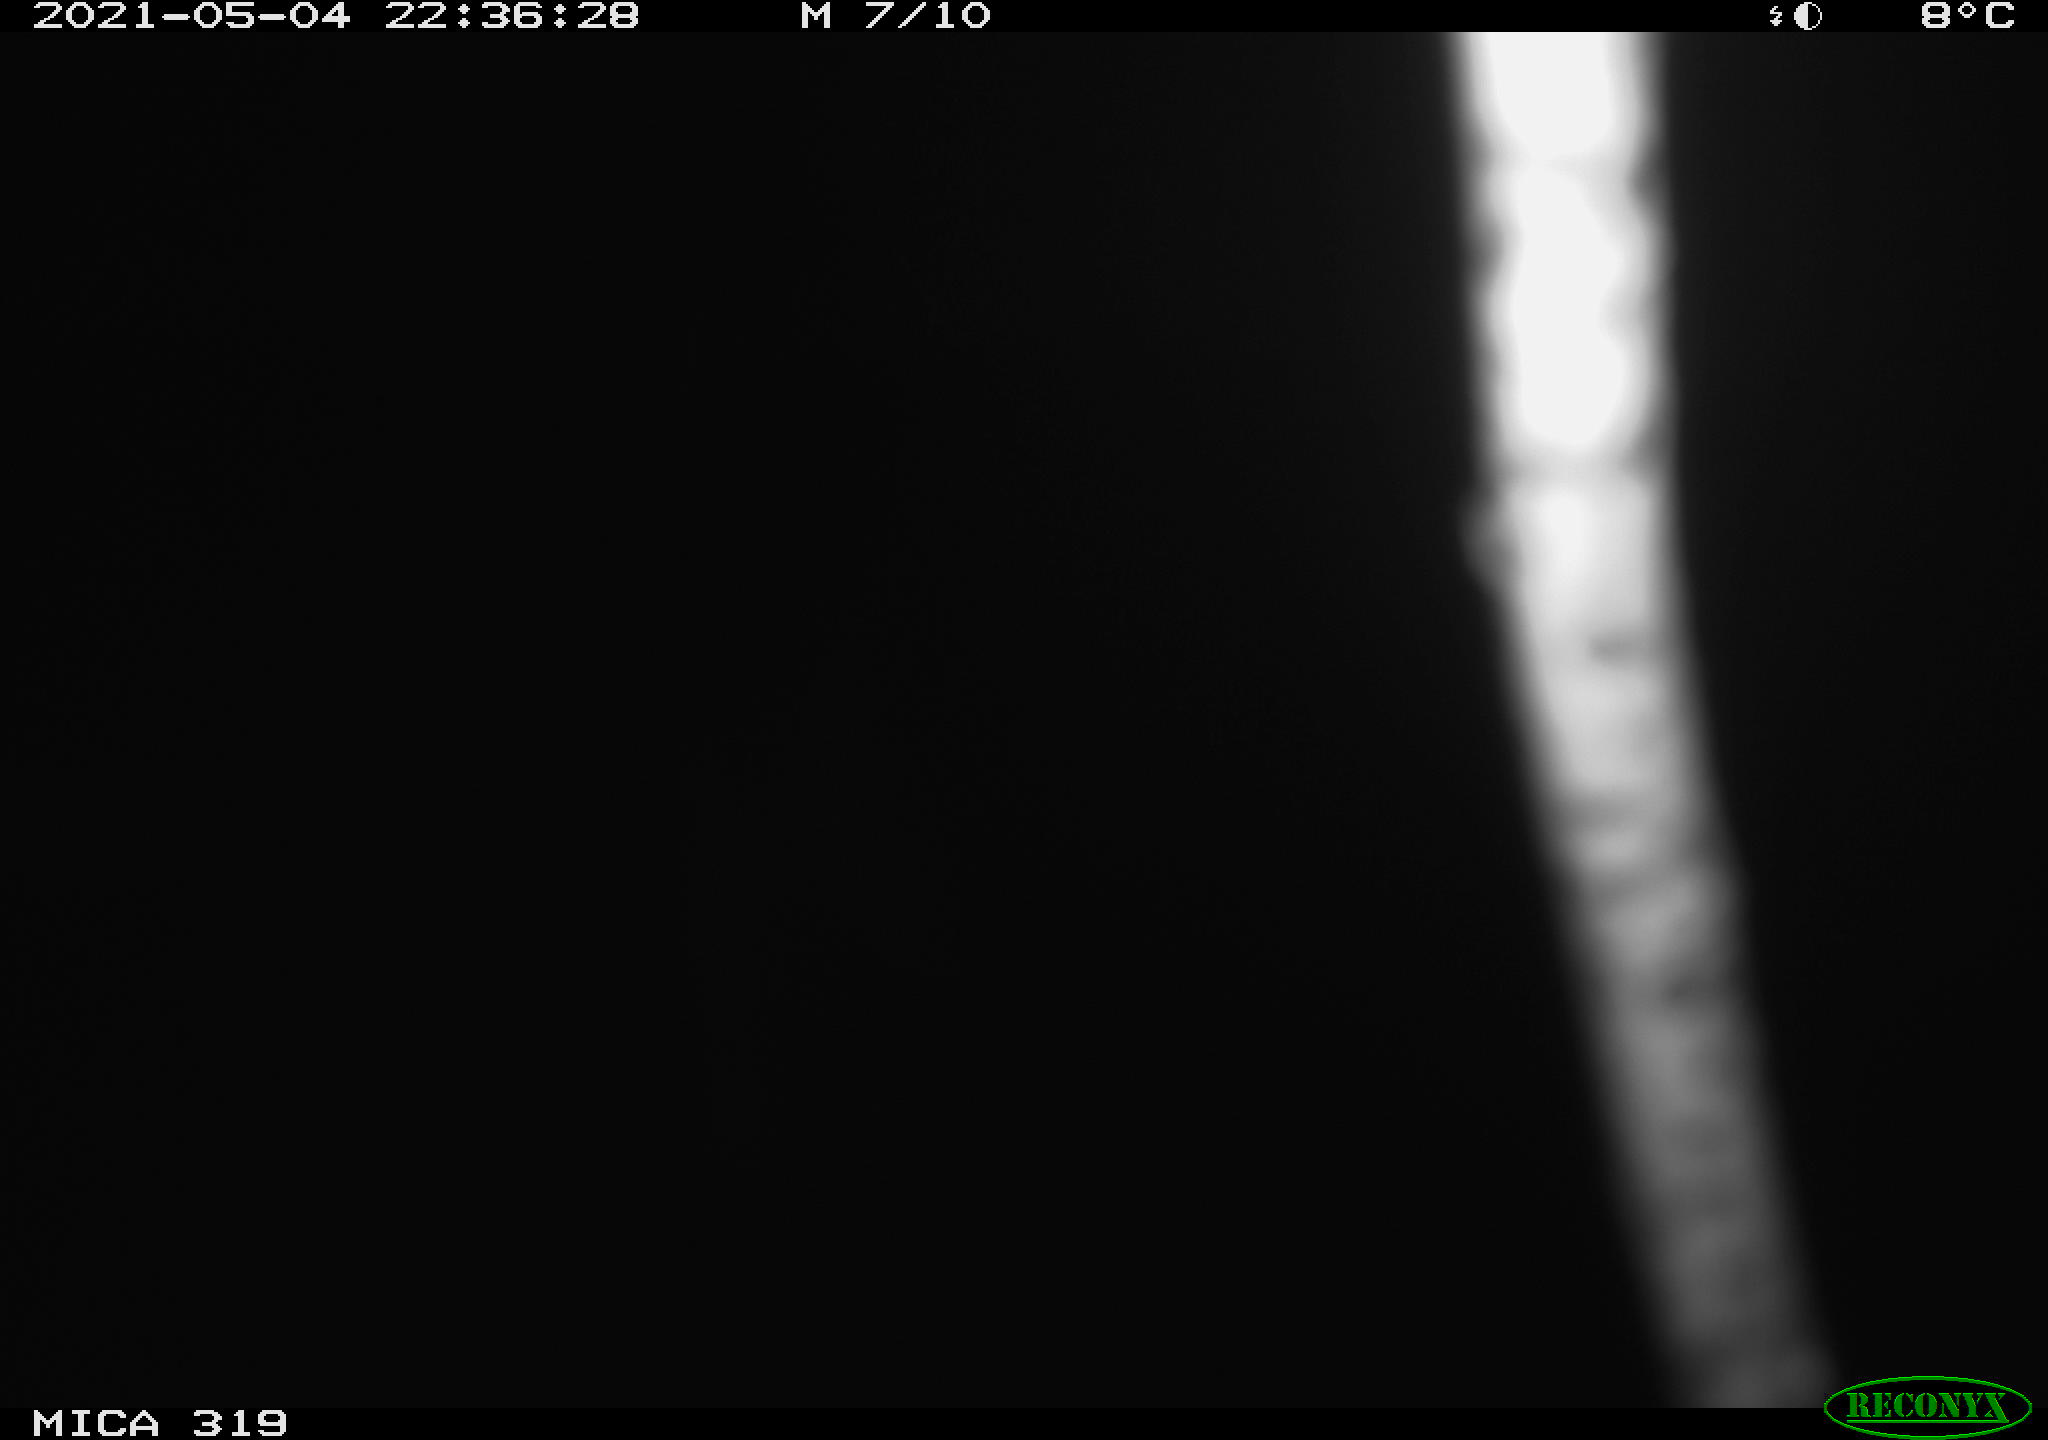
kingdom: Animalia
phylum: Chordata
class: Aves
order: Anseriformes
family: Anatidae
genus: Anas
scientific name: Anas platyrhynchos
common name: Mallard
